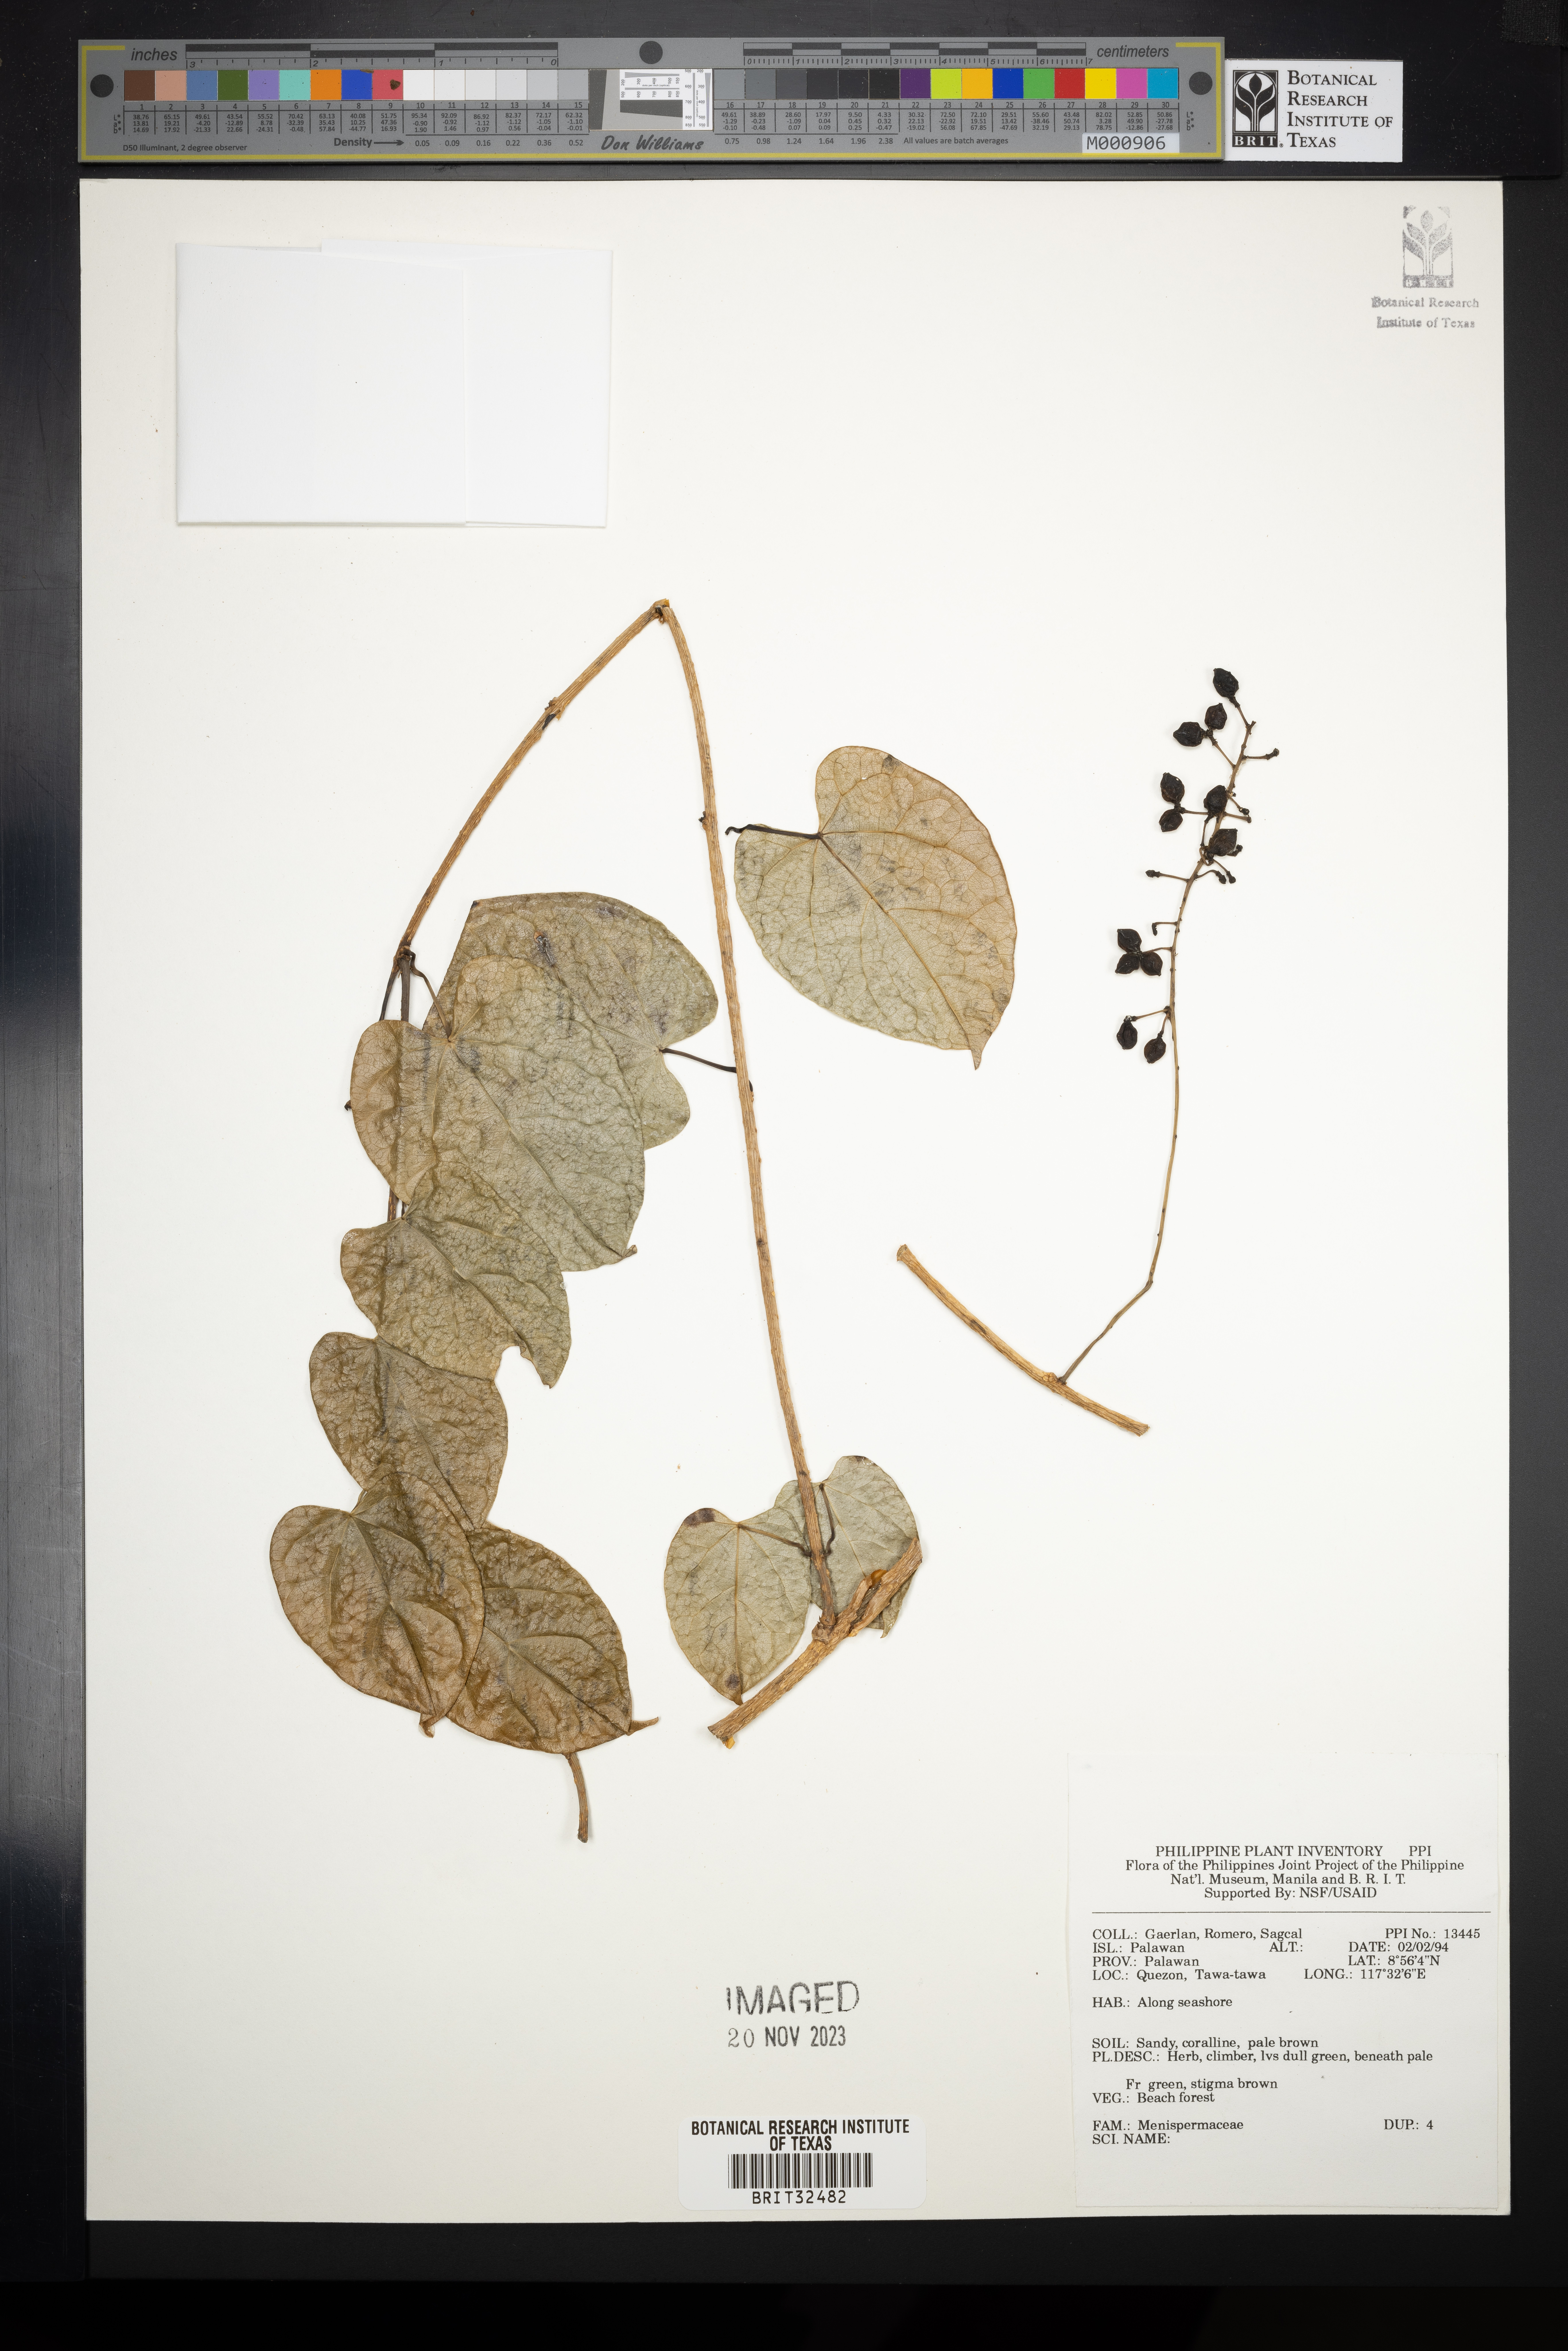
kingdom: Plantae
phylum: Tracheophyta
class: Magnoliopsida
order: Ranunculales
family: Menispermaceae
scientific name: Menispermaceae
